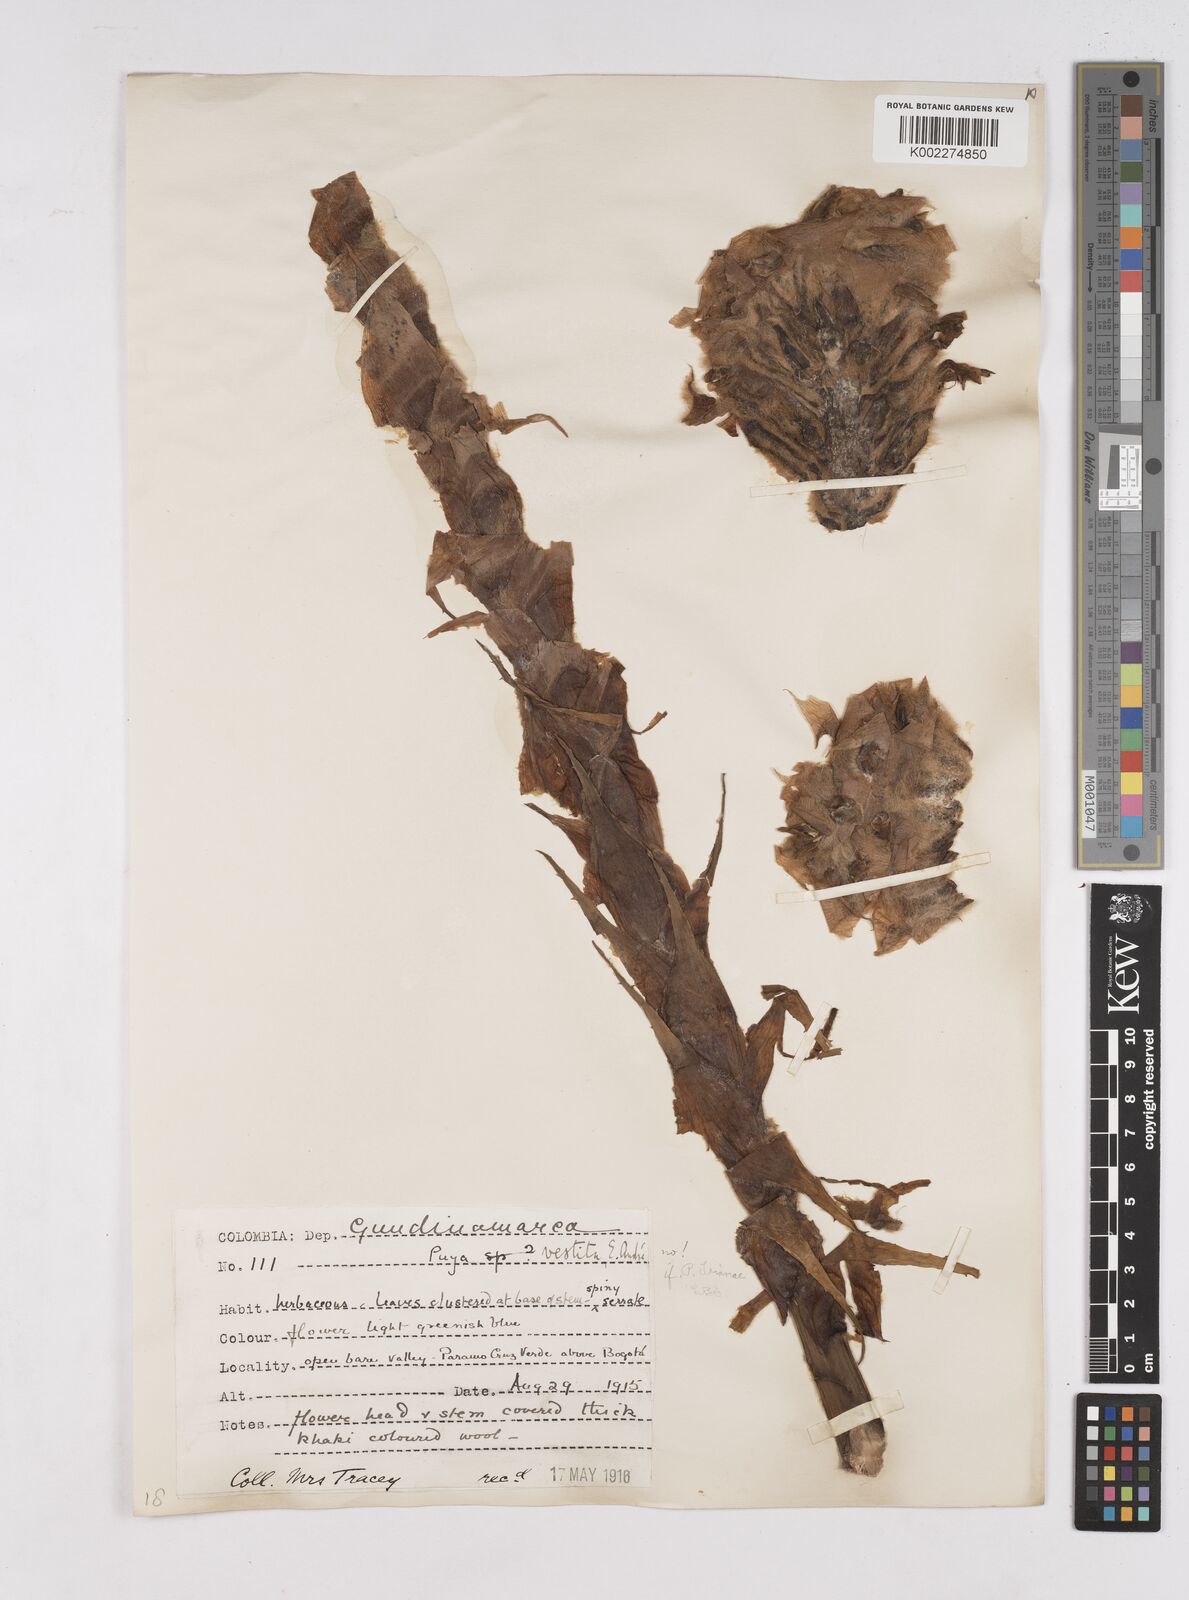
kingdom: Plantae
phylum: Tracheophyta
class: Liliopsida
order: Poales
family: Bromeliaceae
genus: Puya
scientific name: Puya trianae
